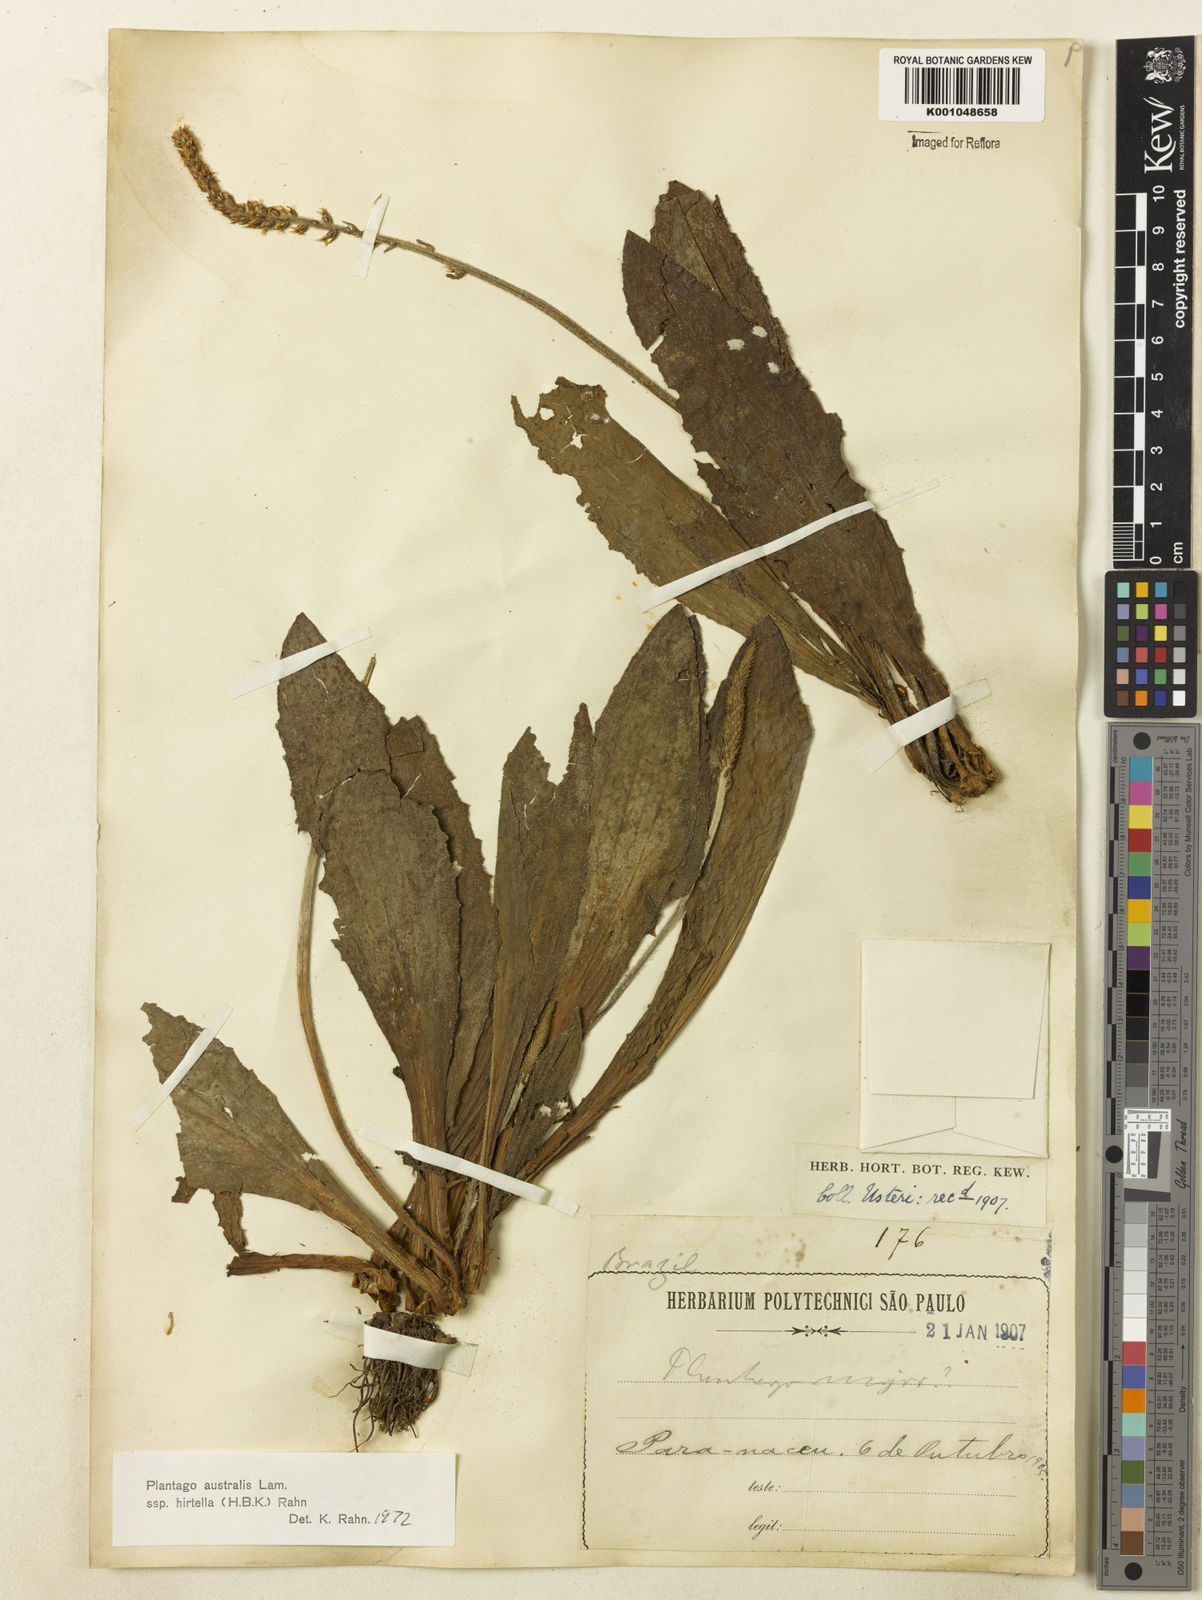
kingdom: Plantae
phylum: Tracheophyta
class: Magnoliopsida
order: Lamiales
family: Plantaginaceae
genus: Plantago
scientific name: Plantago australis
